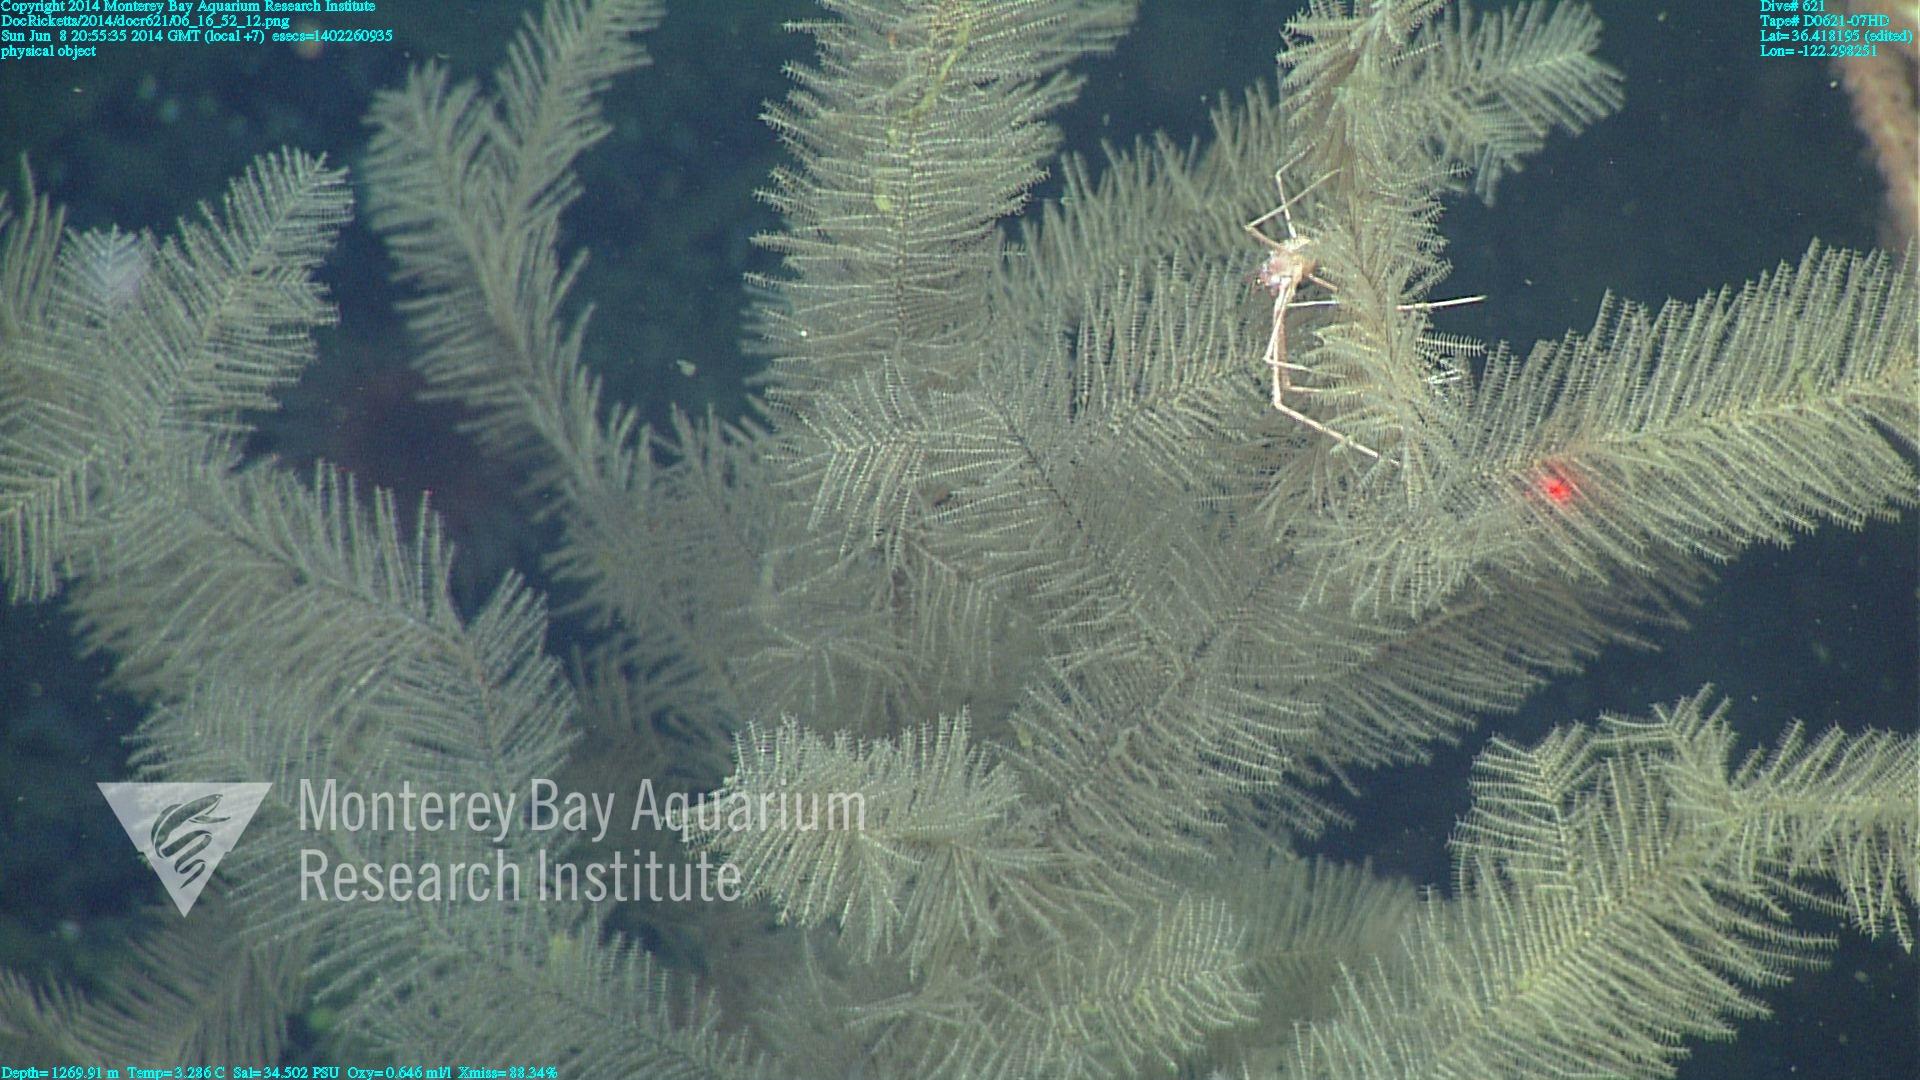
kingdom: Animalia
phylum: Cnidaria
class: Anthozoa
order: Antipatharia
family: Schizopathidae
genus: Lillipathes
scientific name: Lillipathes
